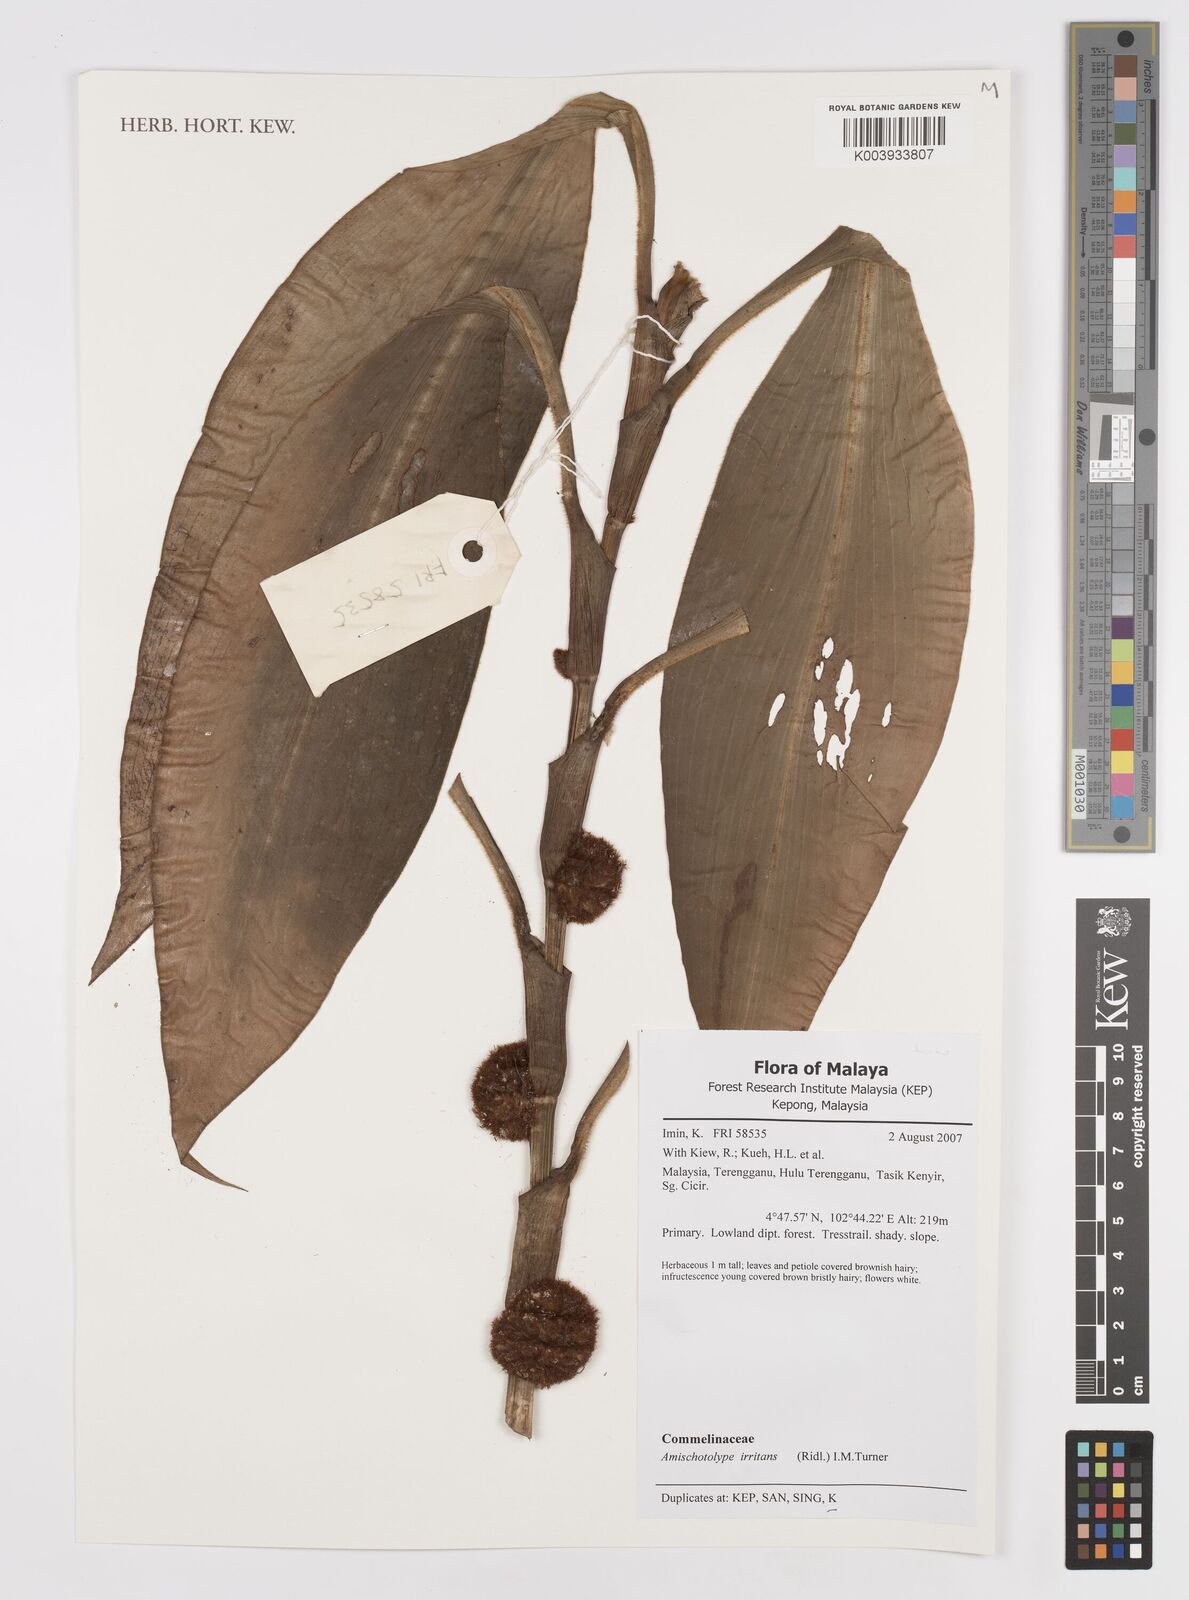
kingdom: Plantae
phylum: Tracheophyta
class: Liliopsida
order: Commelinales
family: Commelinaceae
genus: Amischotolype
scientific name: Amischotolype irritans
